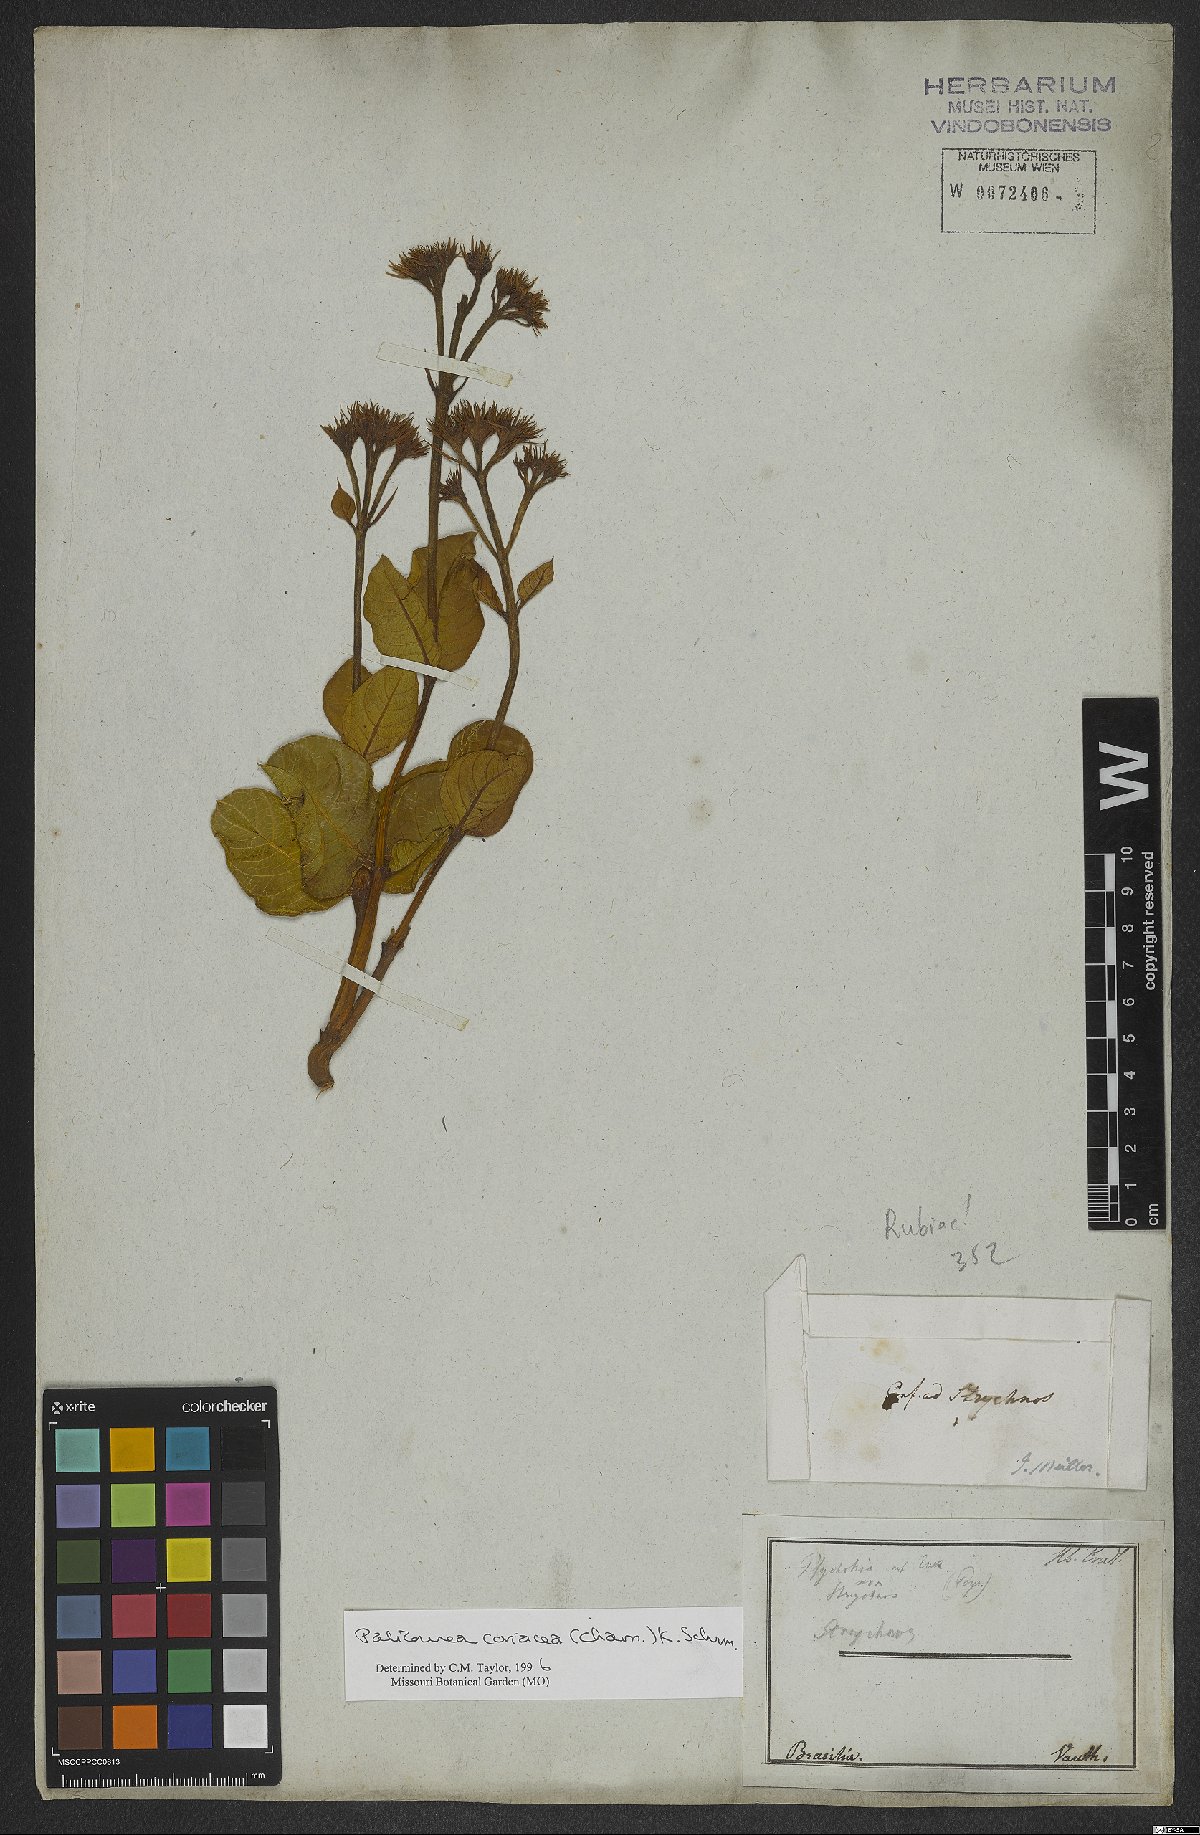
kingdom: Plantae
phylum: Tracheophyta
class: Magnoliopsida
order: Gentianales
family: Rubiaceae
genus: Palicourea
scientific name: Palicourea coriacea
